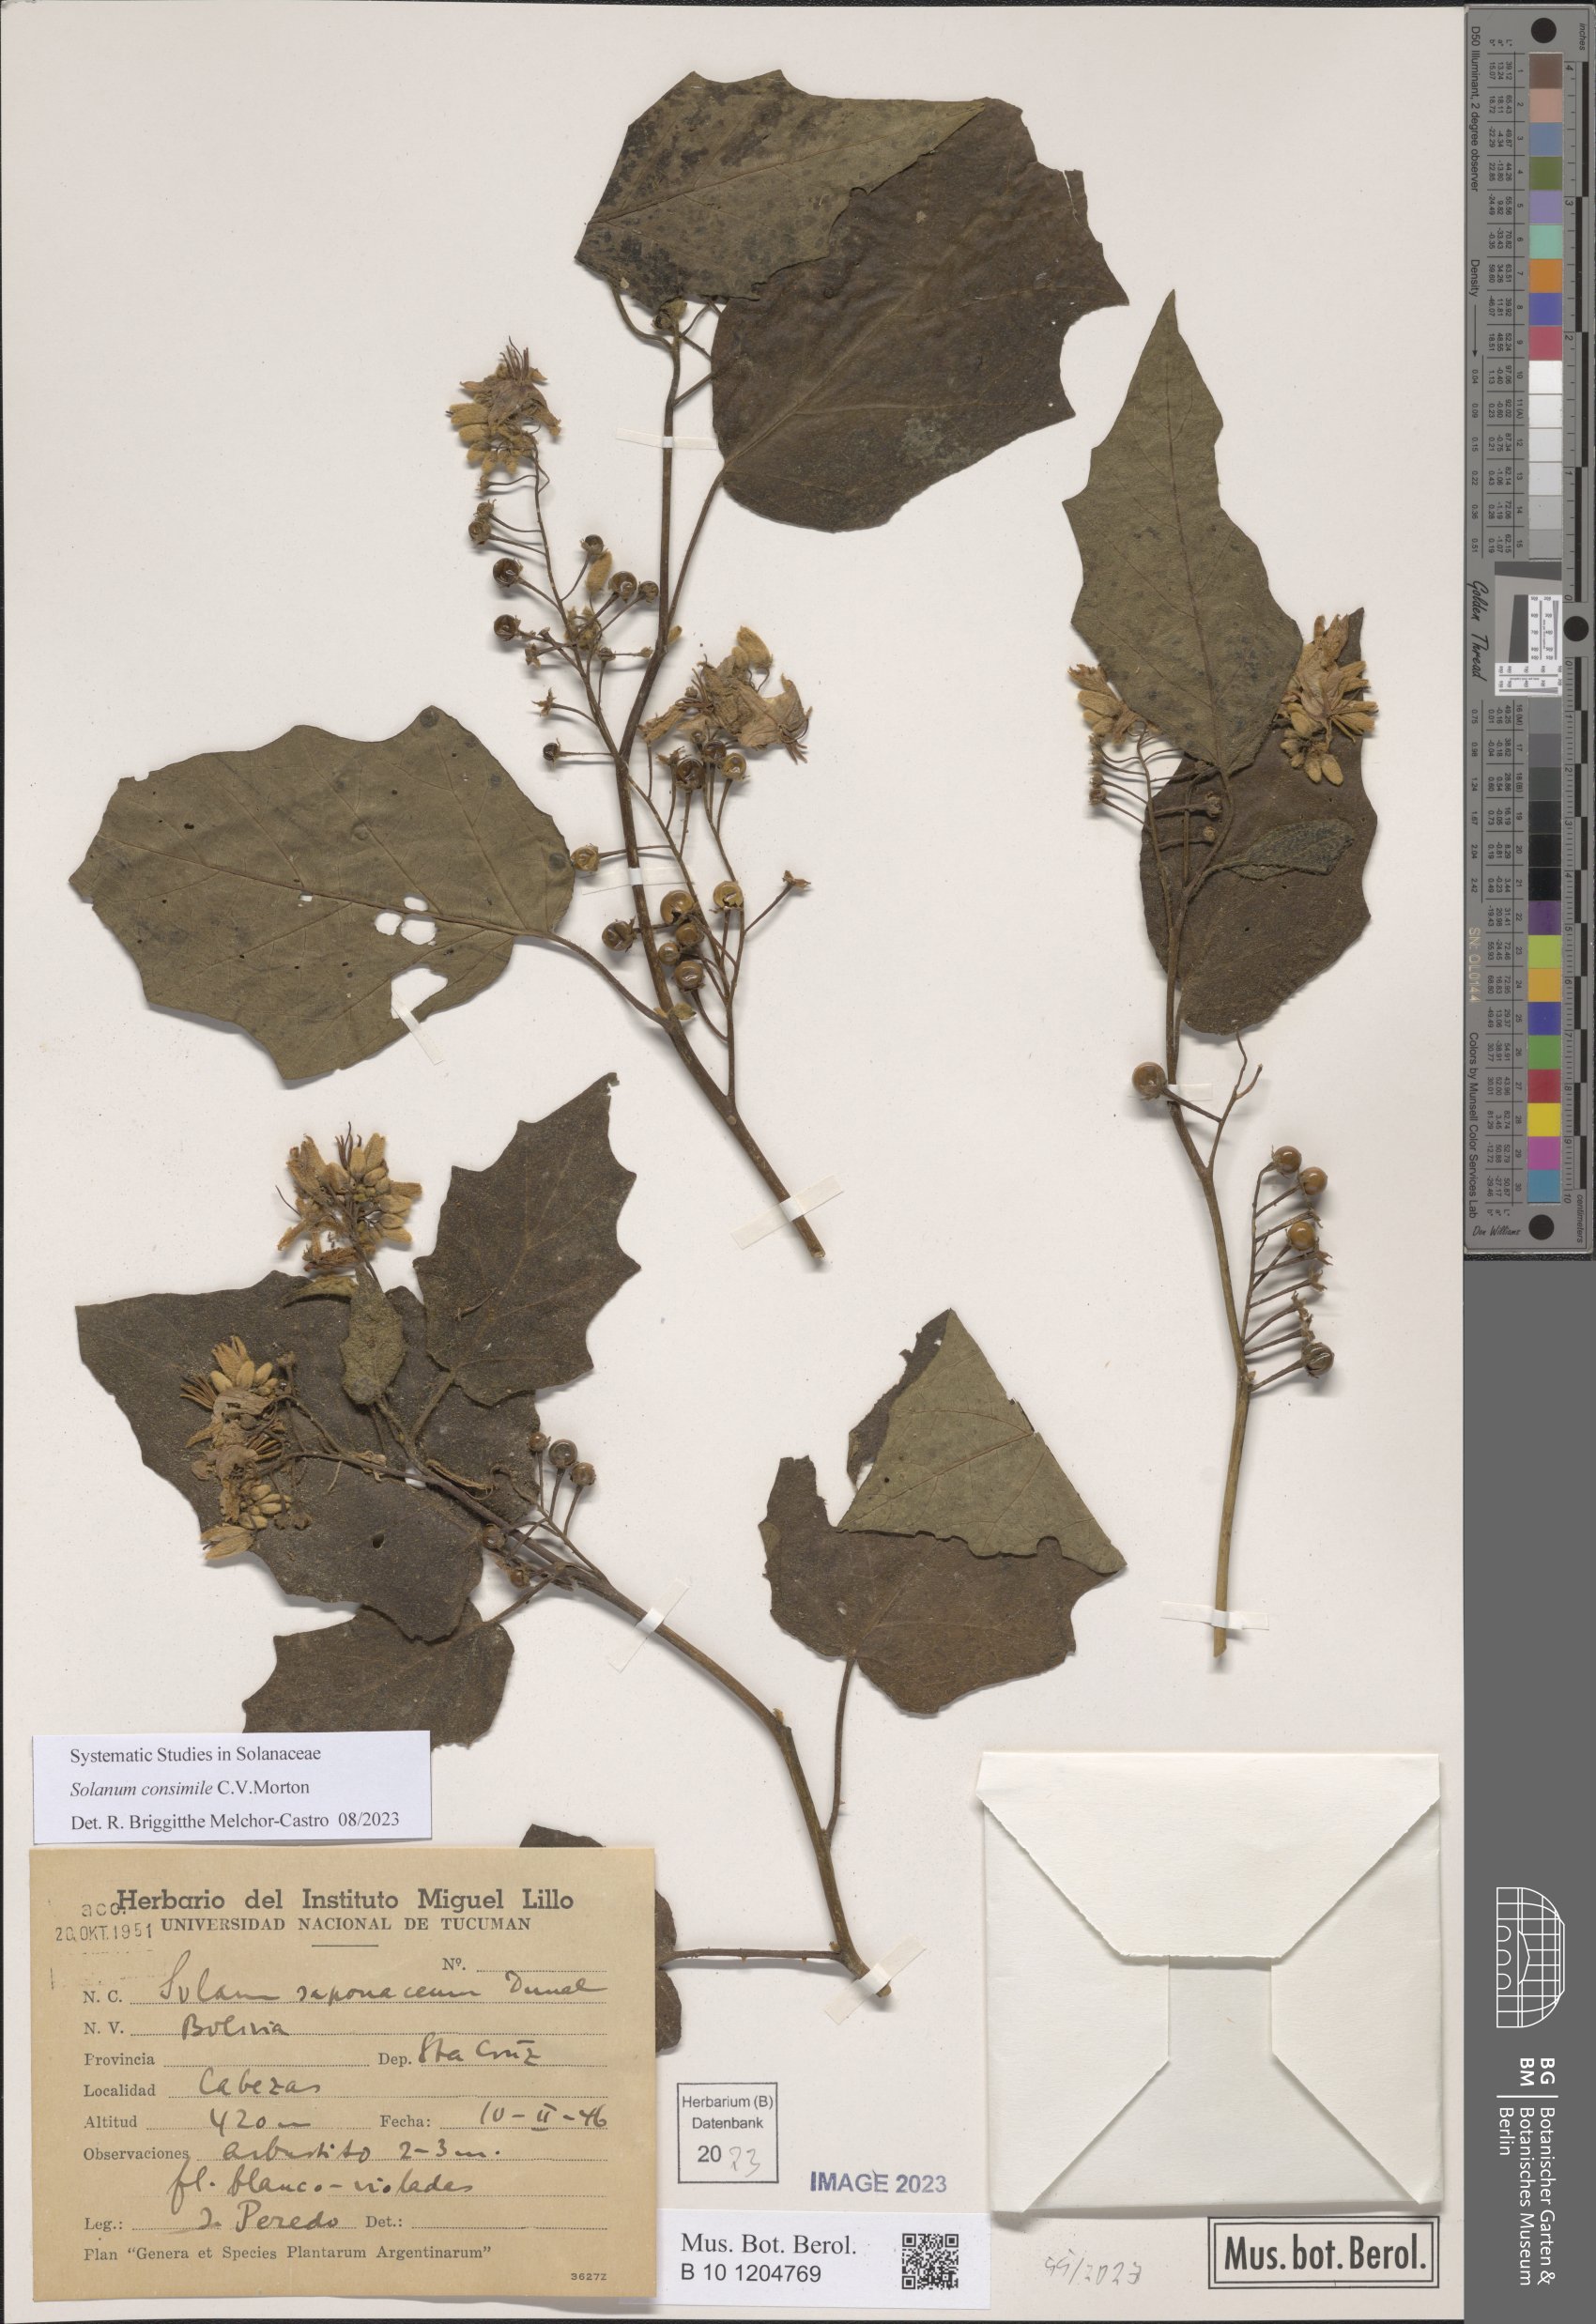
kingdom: Plantae
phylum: Tracheophyta
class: Magnoliopsida
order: Solanales
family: Solanaceae
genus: Solanum
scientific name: Solanum consimile
